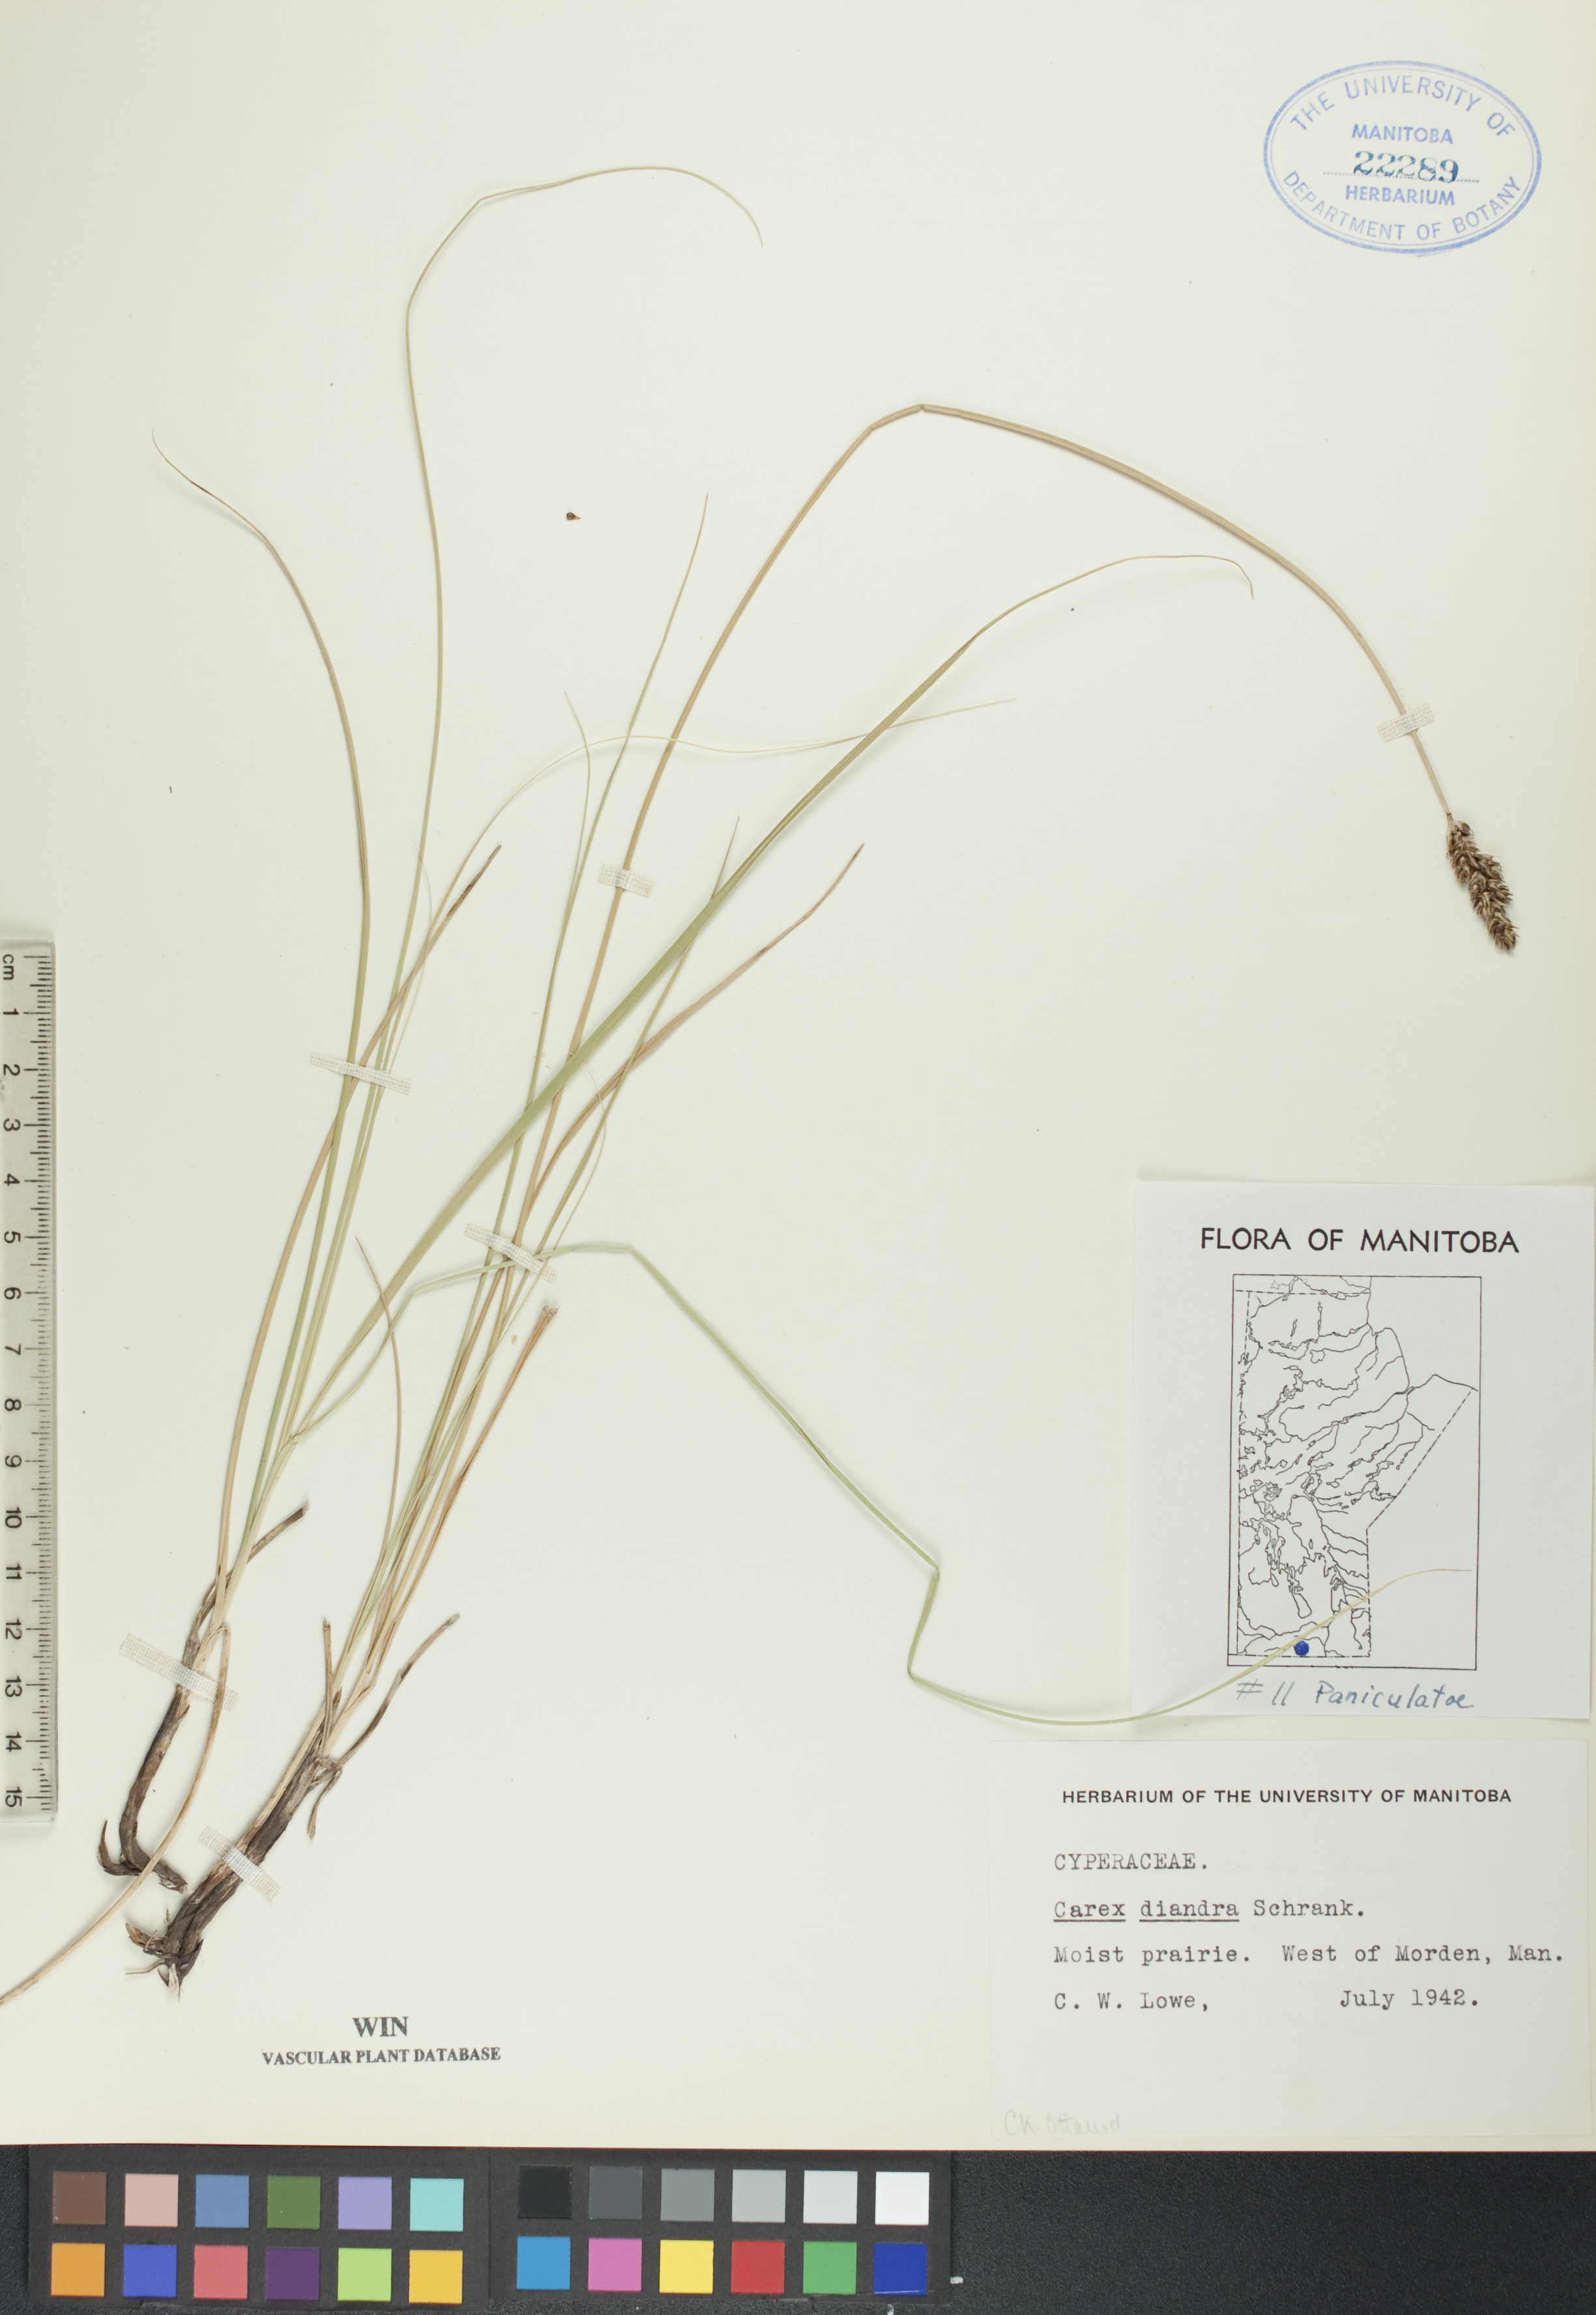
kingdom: Plantae
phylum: Tracheophyta
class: Liliopsida
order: Poales
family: Cyperaceae
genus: Carex
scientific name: Carex diandra
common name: Lesser tussock-sedge
